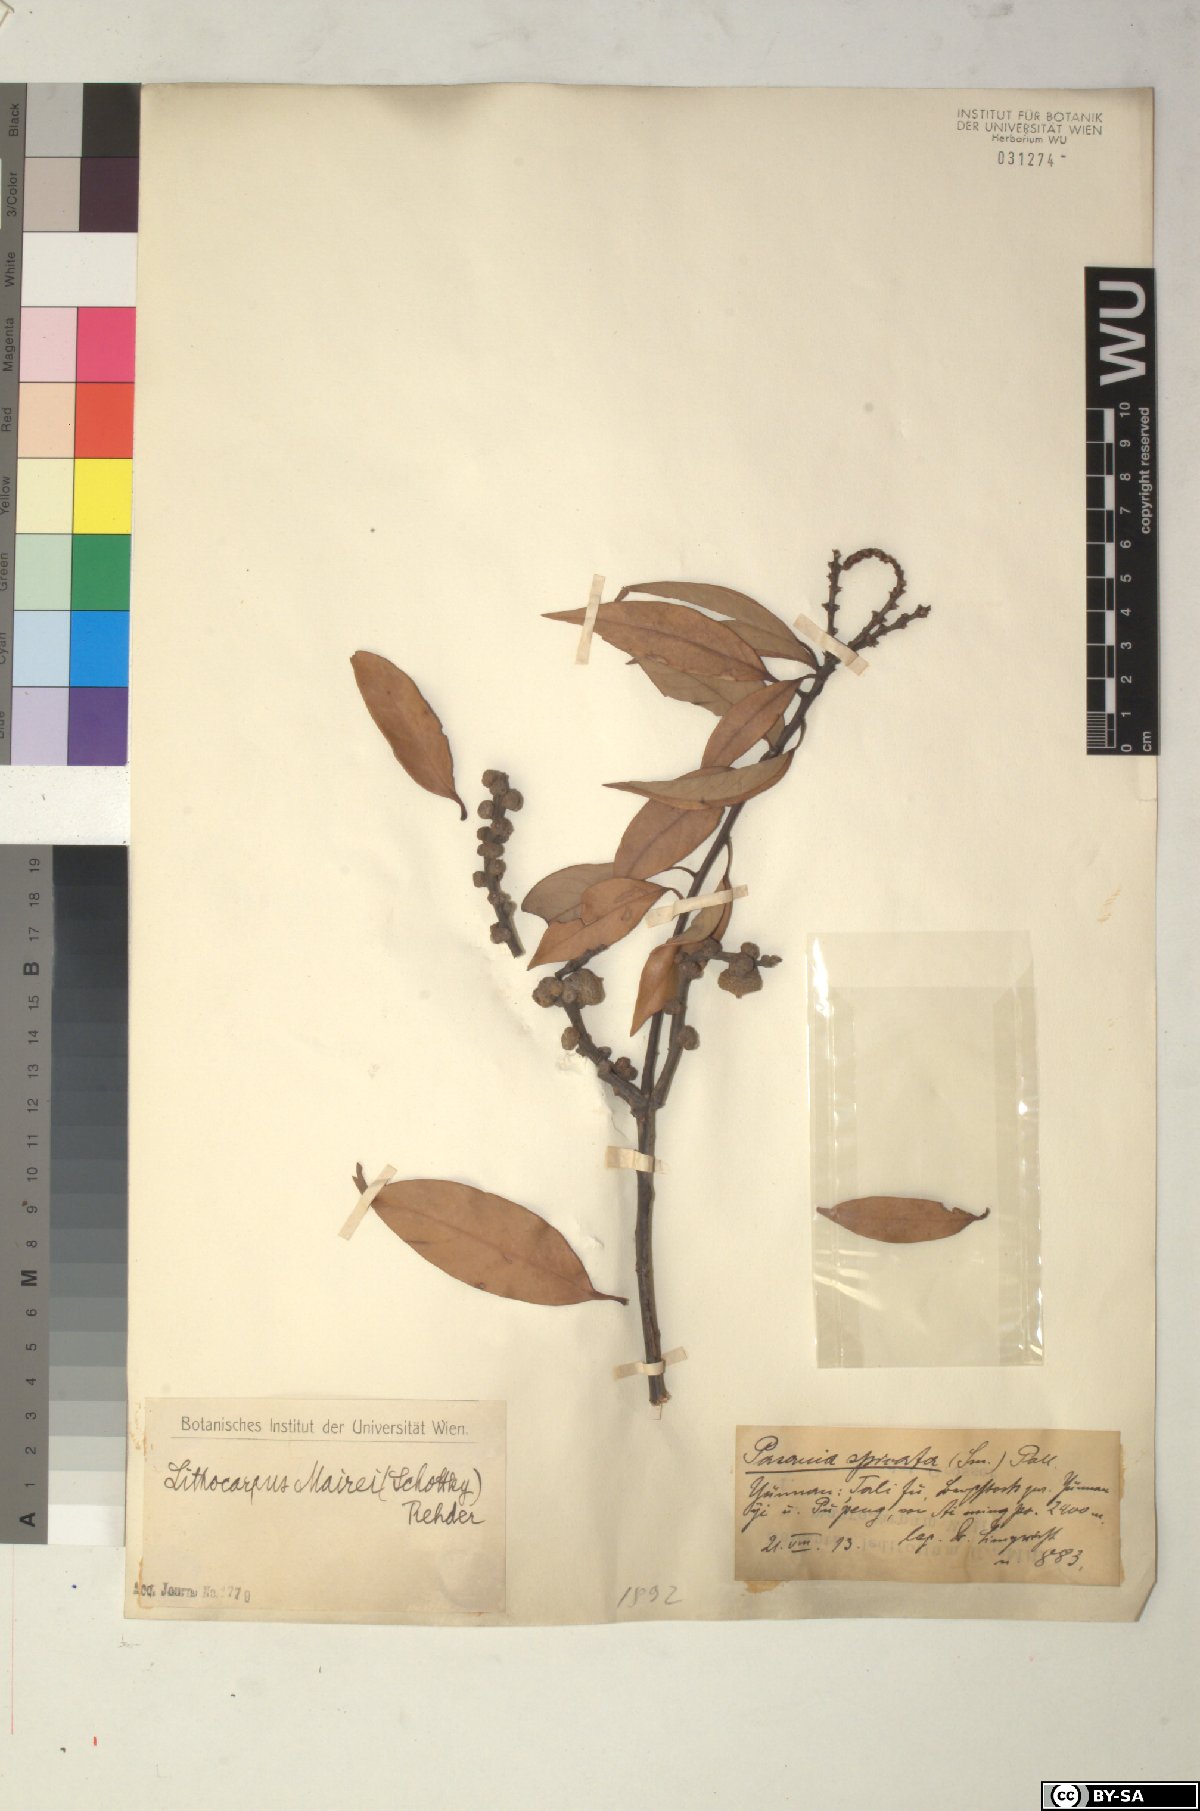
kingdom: Plantae
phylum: Tracheophyta
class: Magnoliopsida
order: Fagales
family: Fagaceae
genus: Lithocarpus
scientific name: Lithocarpus mairei
